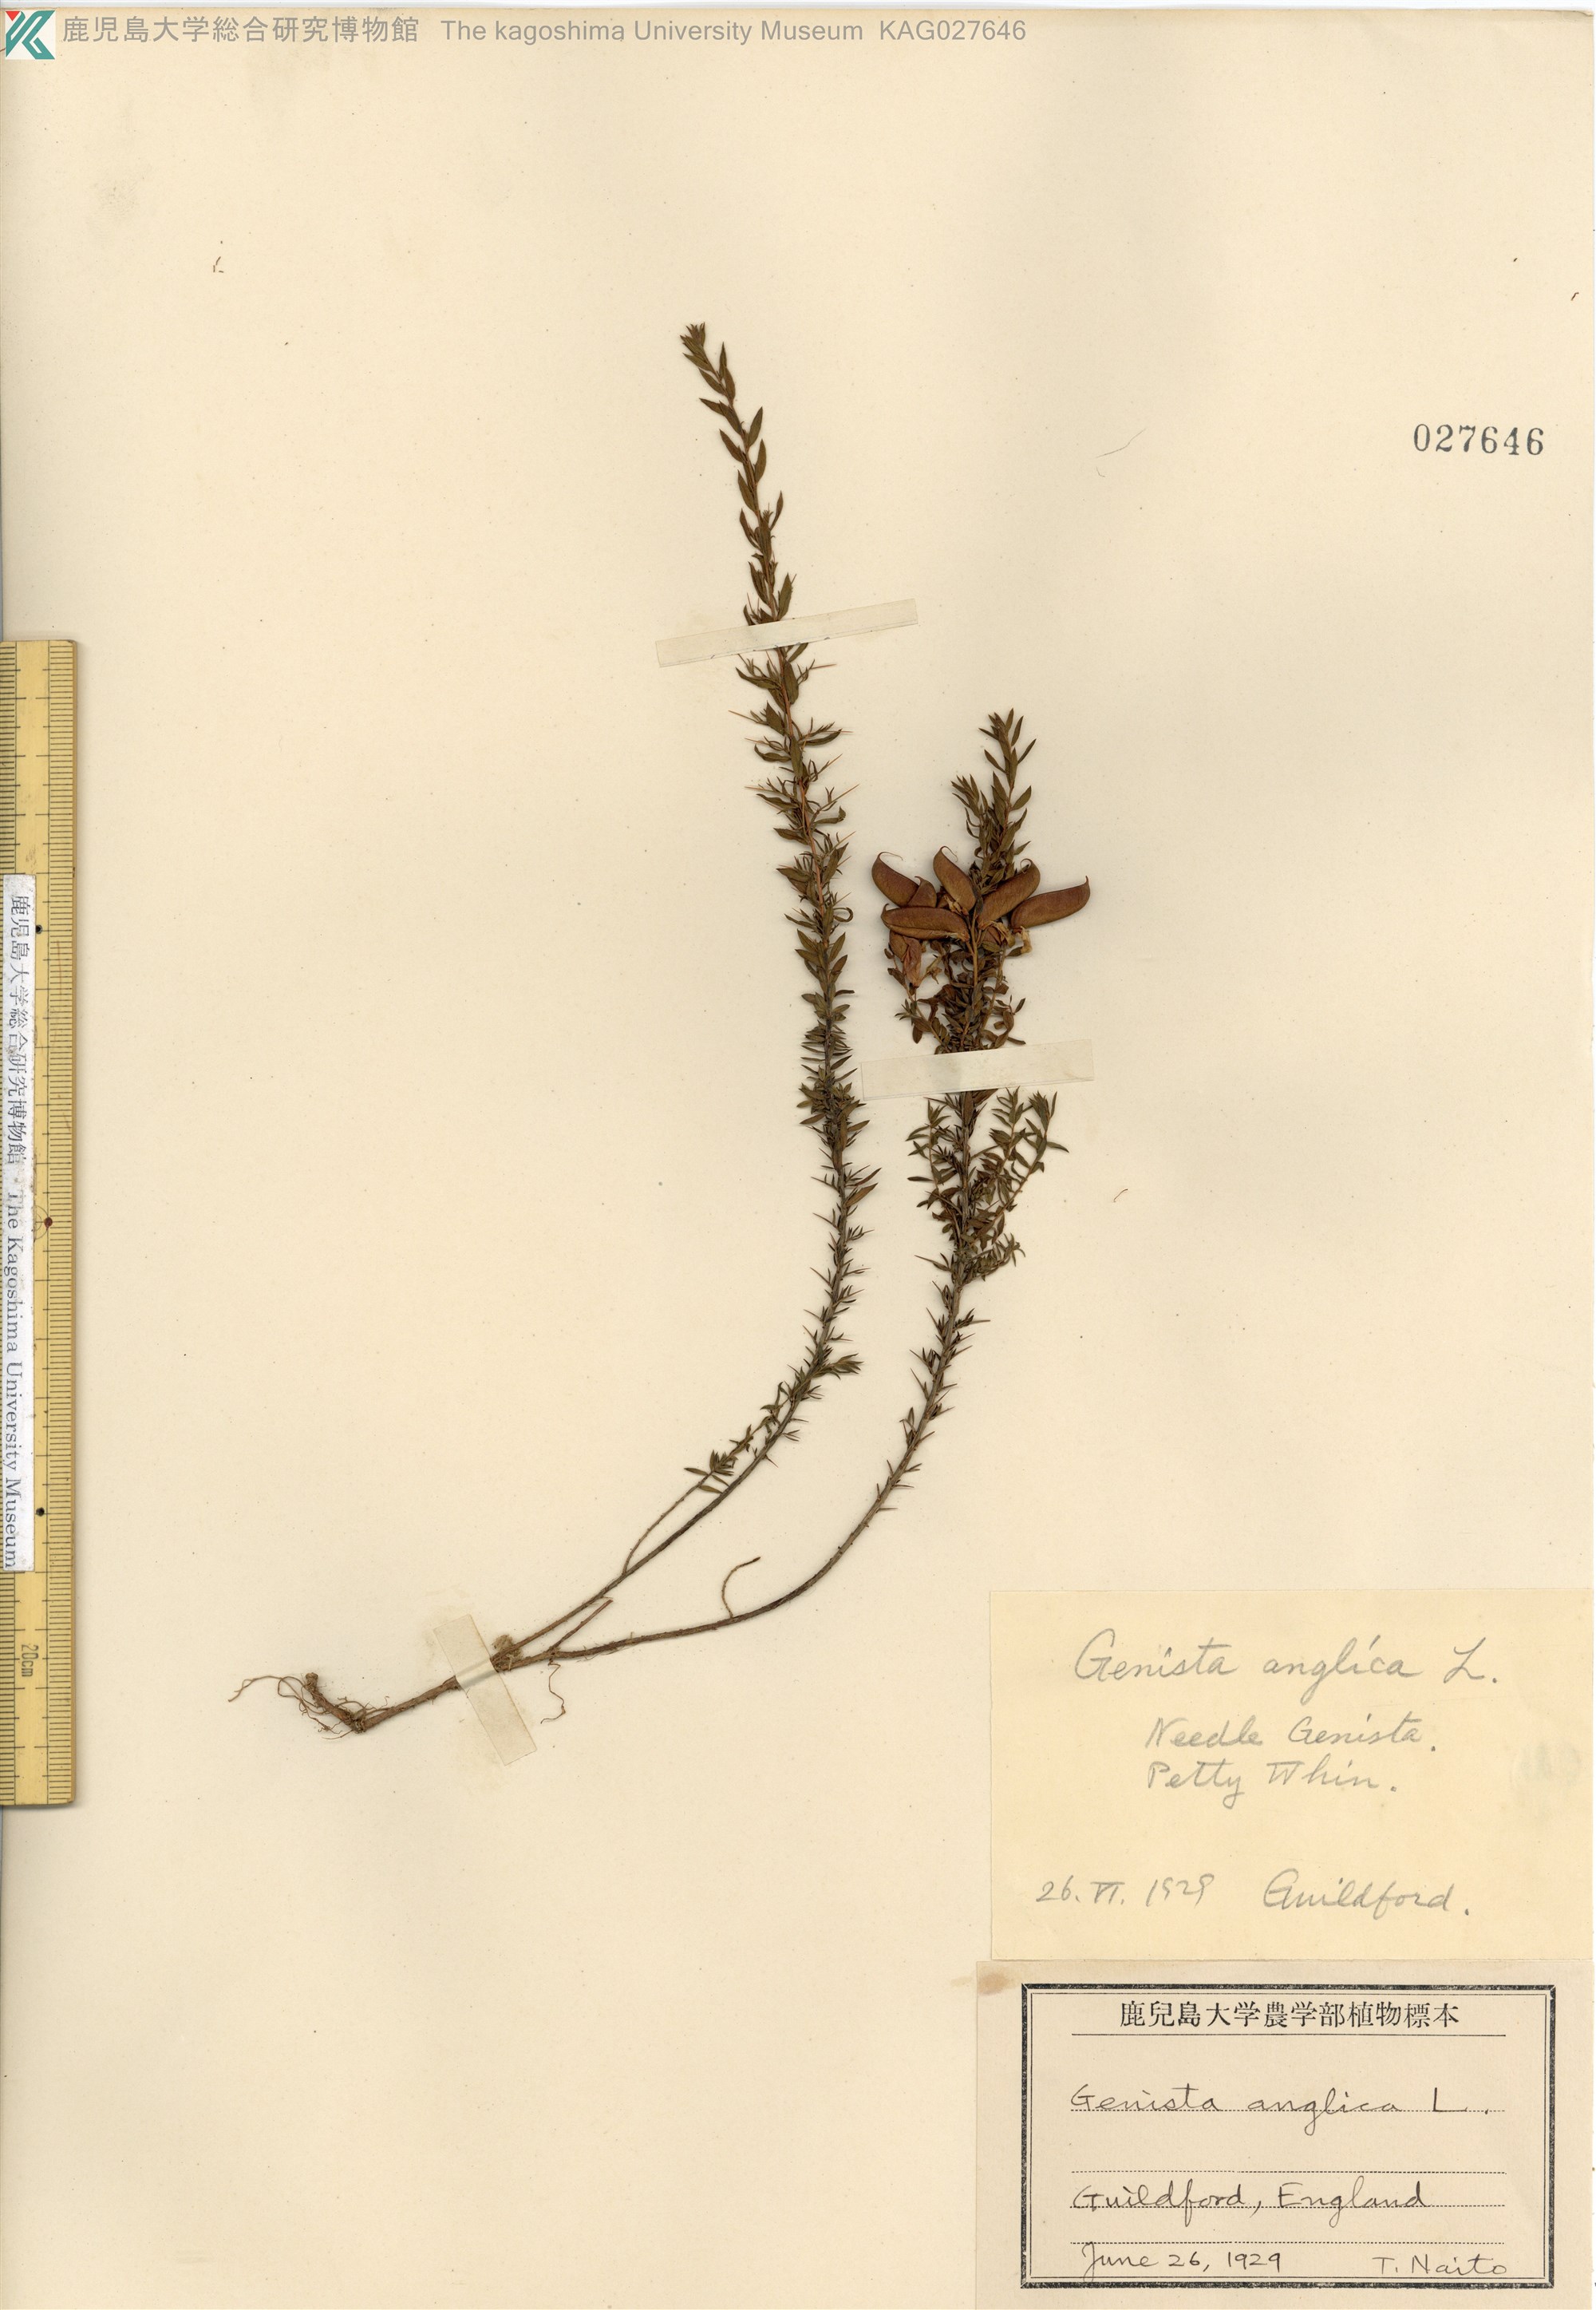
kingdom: Plantae
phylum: Tracheophyta
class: Magnoliopsida
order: Fabales
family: Fabaceae
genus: Genista
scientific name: Genista anglica
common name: Petty whin
